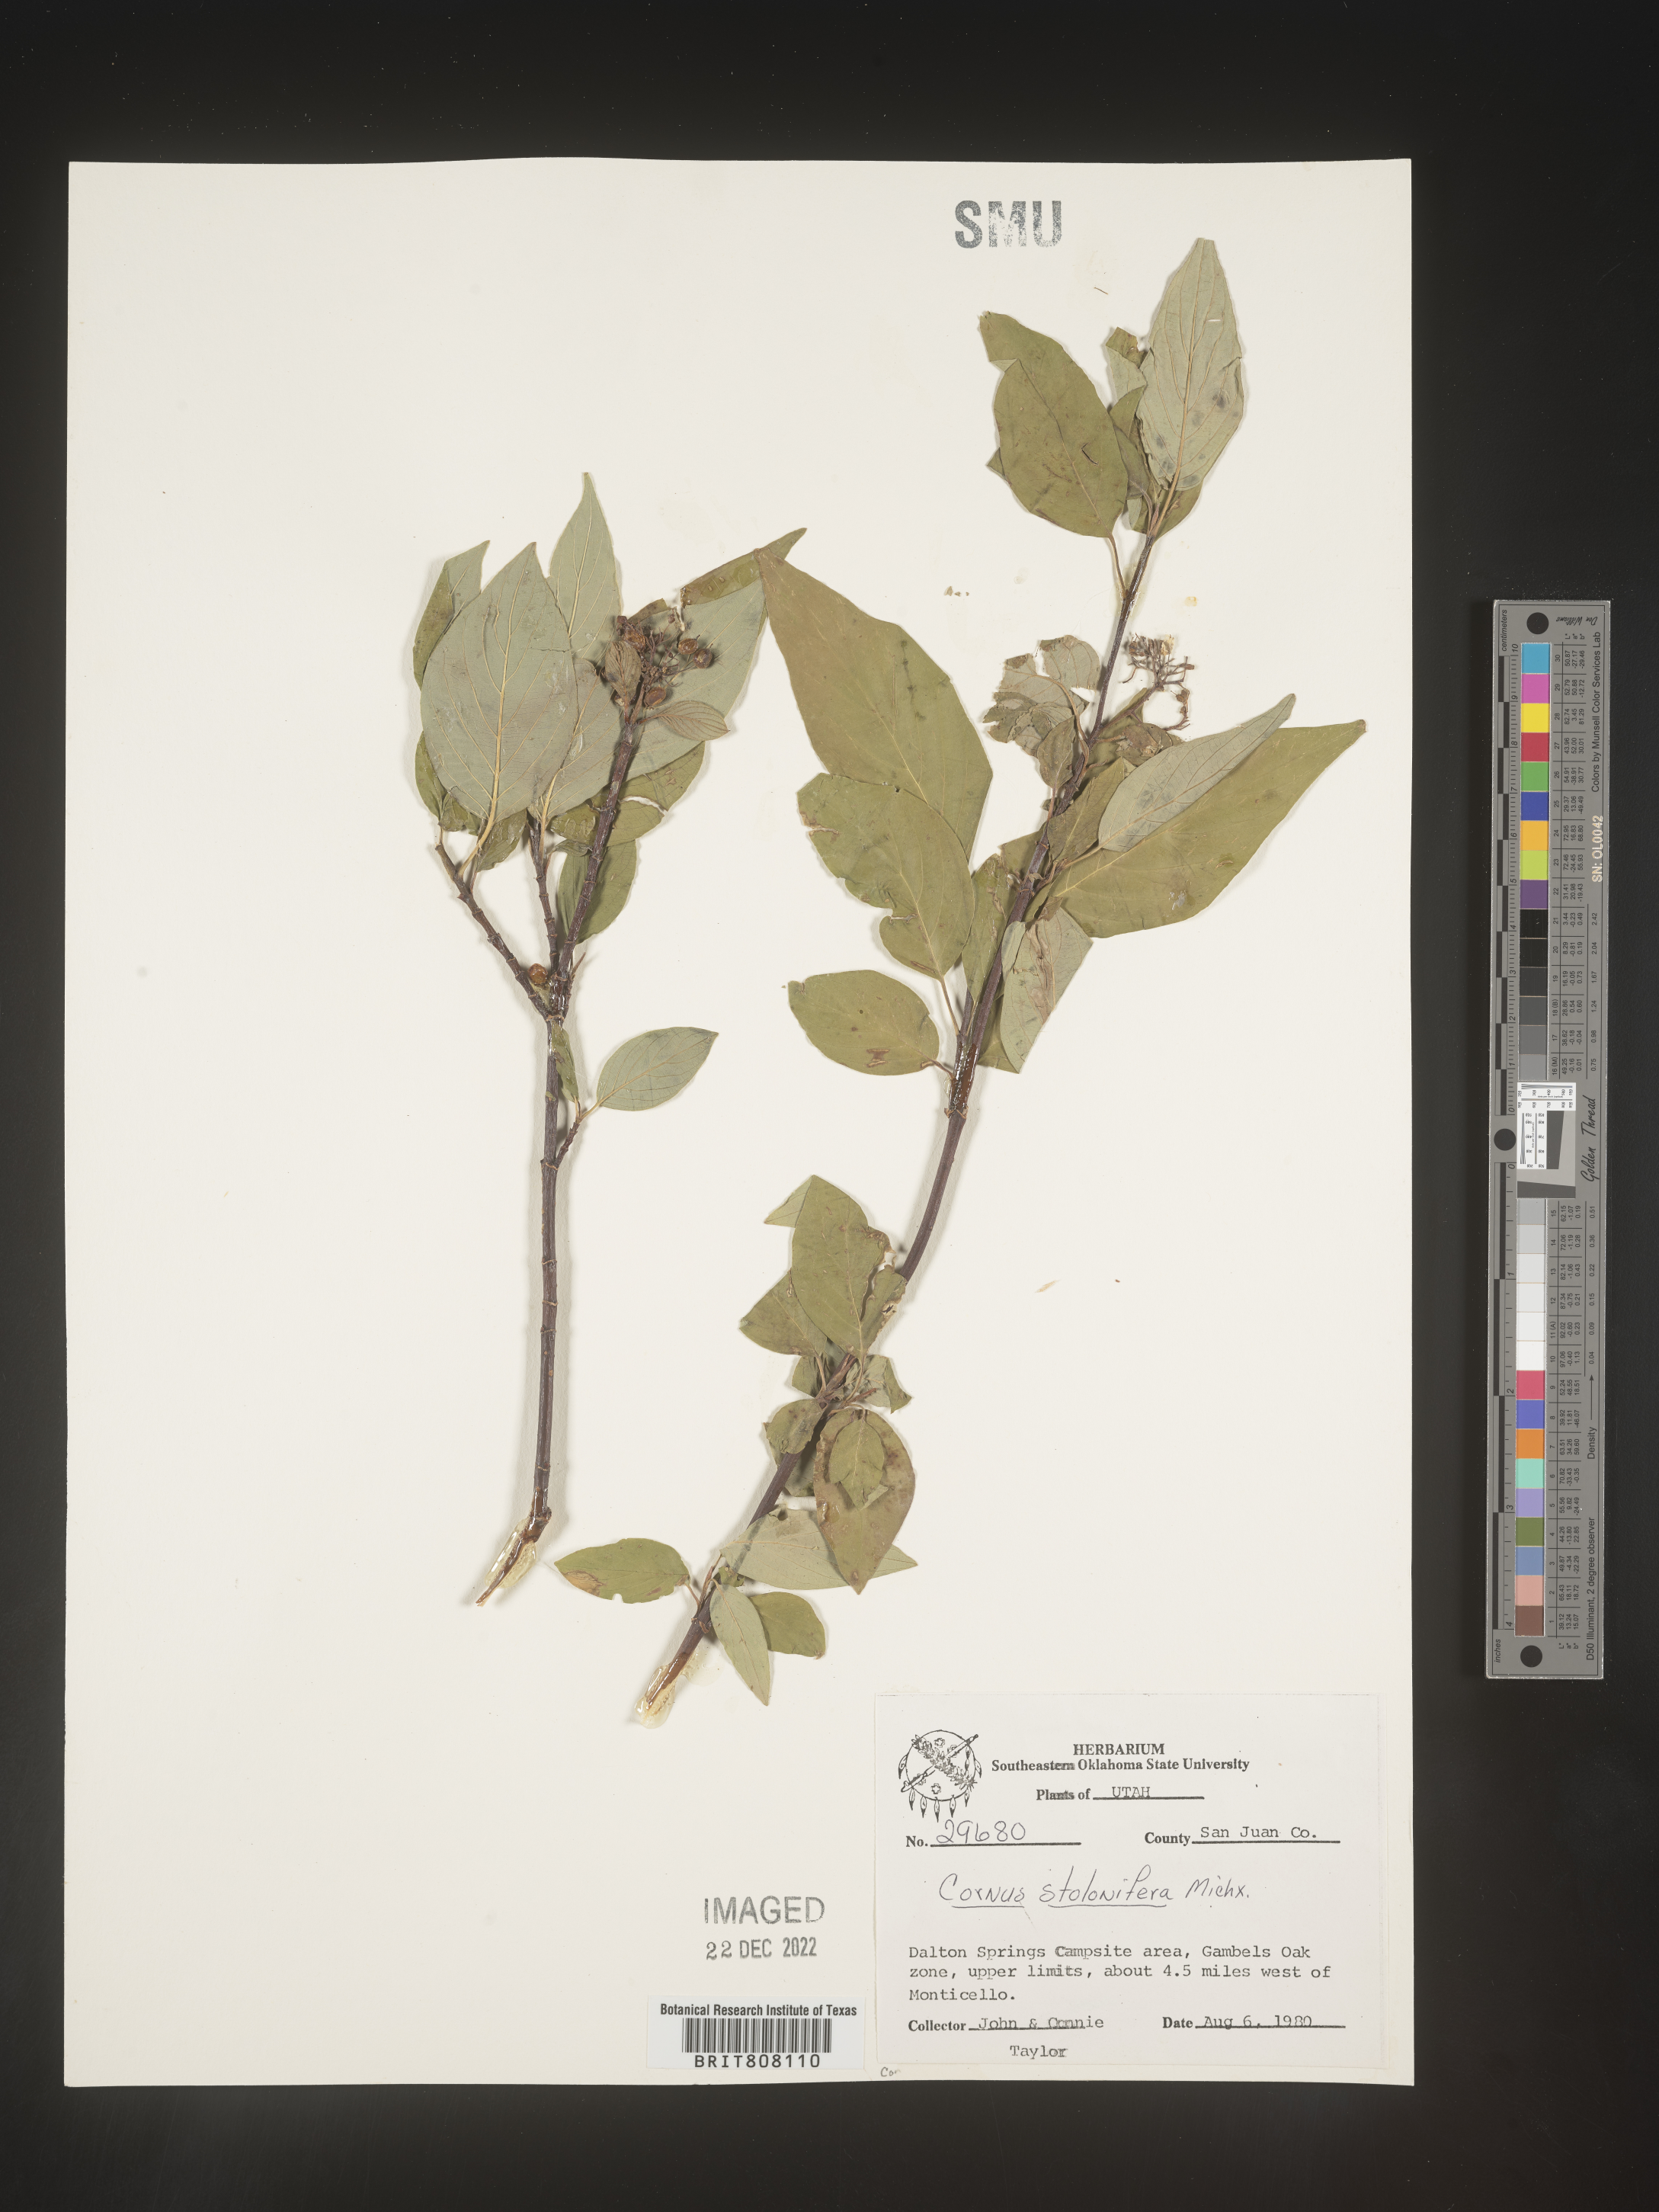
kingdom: Plantae
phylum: Tracheophyta
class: Magnoliopsida
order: Cornales
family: Cornaceae
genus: Cornus
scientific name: Cornus sericea
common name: Red-osier dogwood
